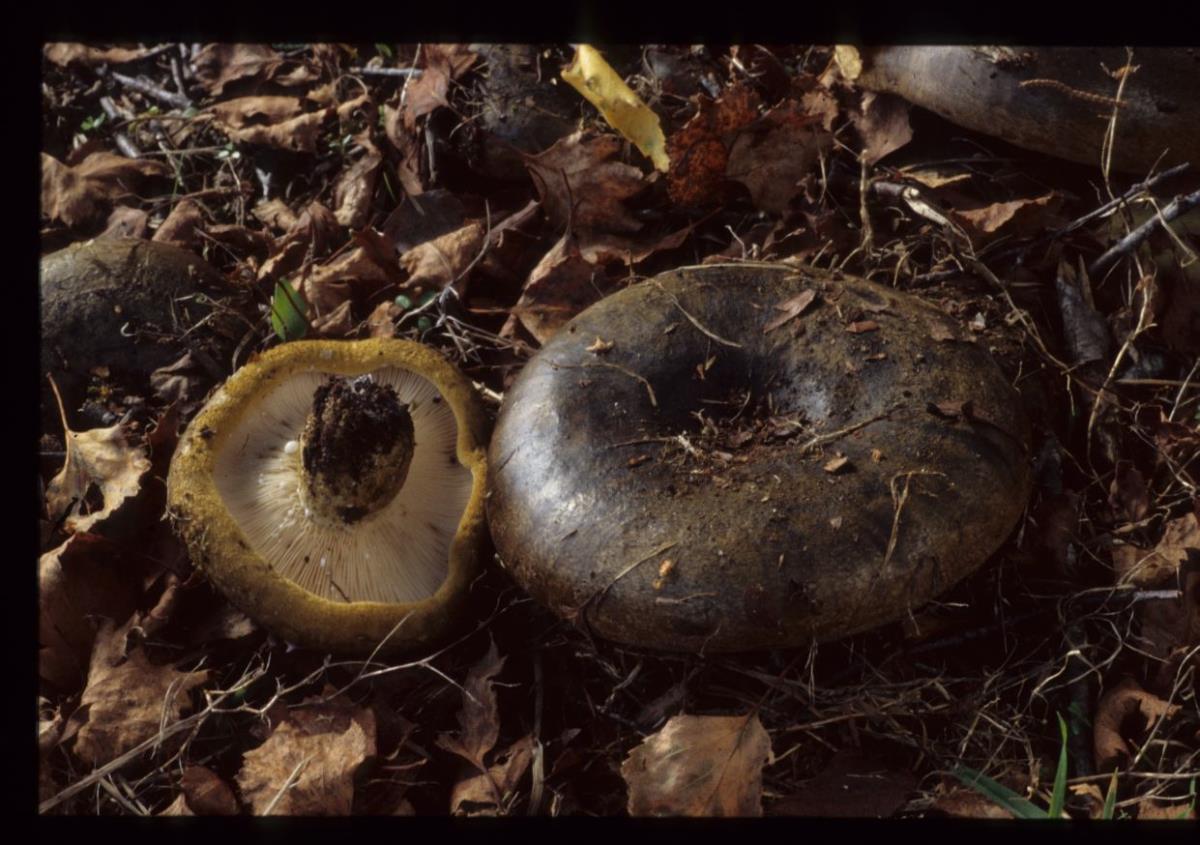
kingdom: Fungi
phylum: Basidiomycota
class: Agaricomycetes
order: Russulales
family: Russulaceae
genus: Lactarius
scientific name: Lactarius turpis
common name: Ugly milk-cap
